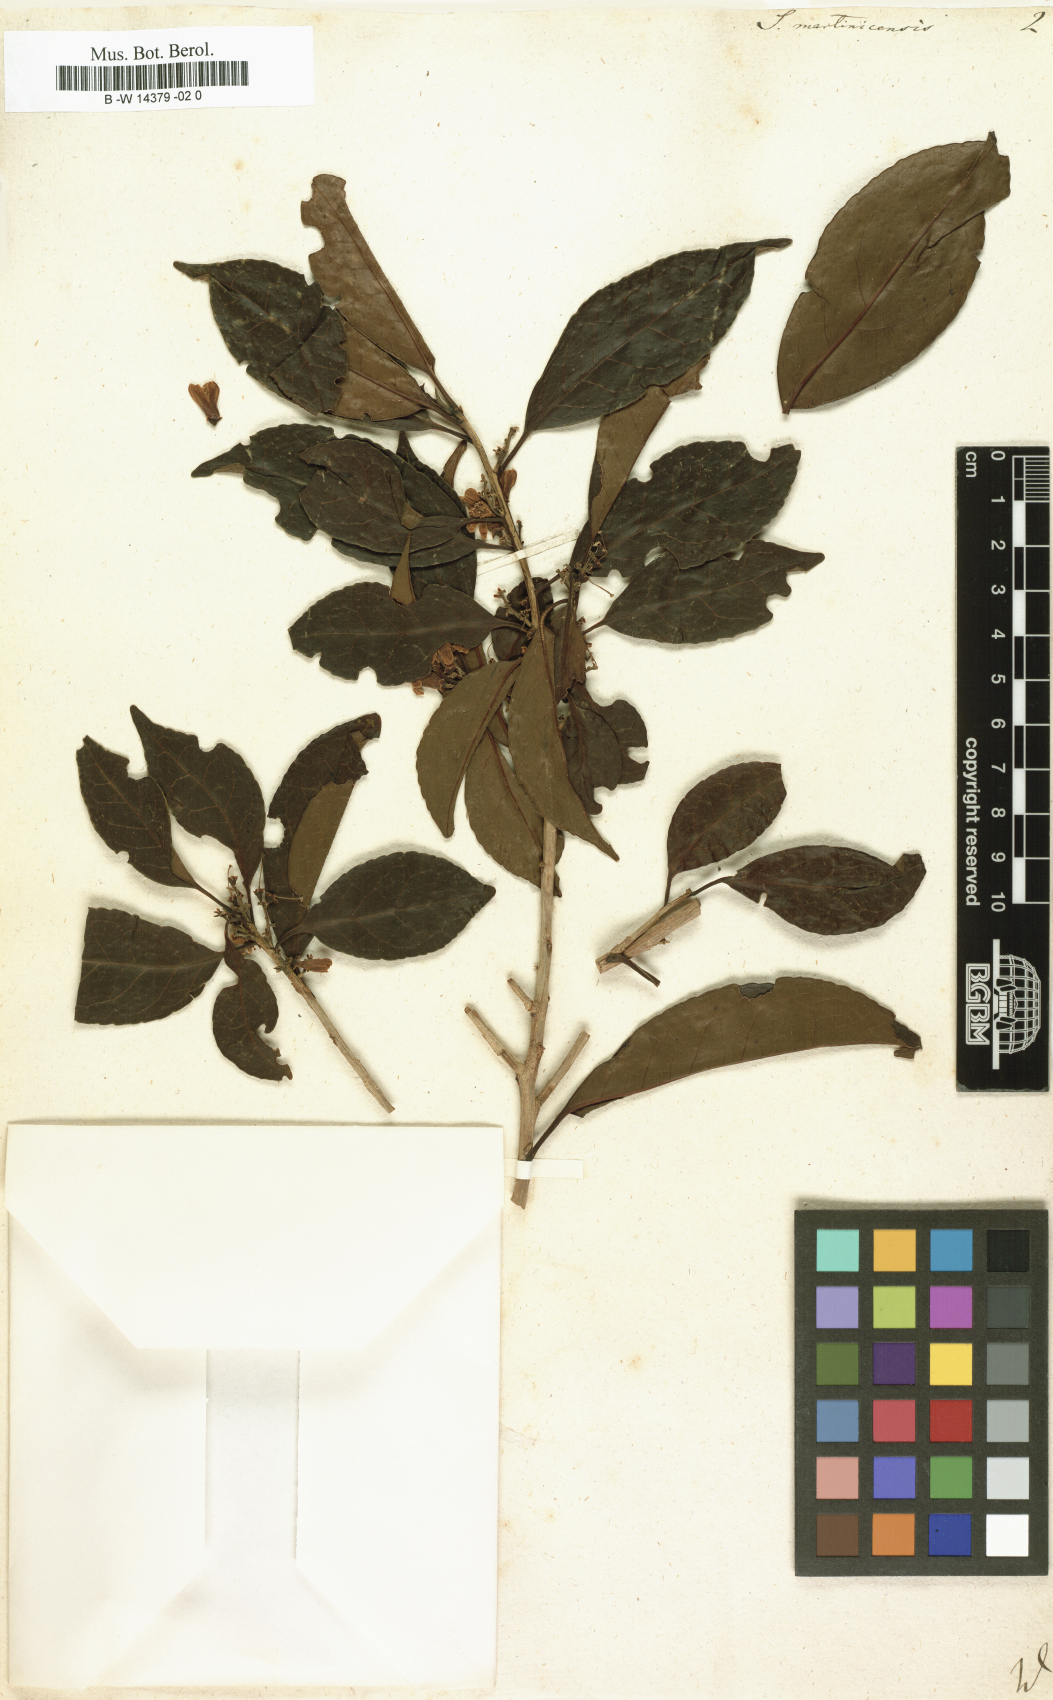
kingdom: Plantae
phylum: Tracheophyta
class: Magnoliopsida
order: Ericales
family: Symplocaceae
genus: Symplocos
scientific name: Symplocos martinicensis
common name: Blueberry
